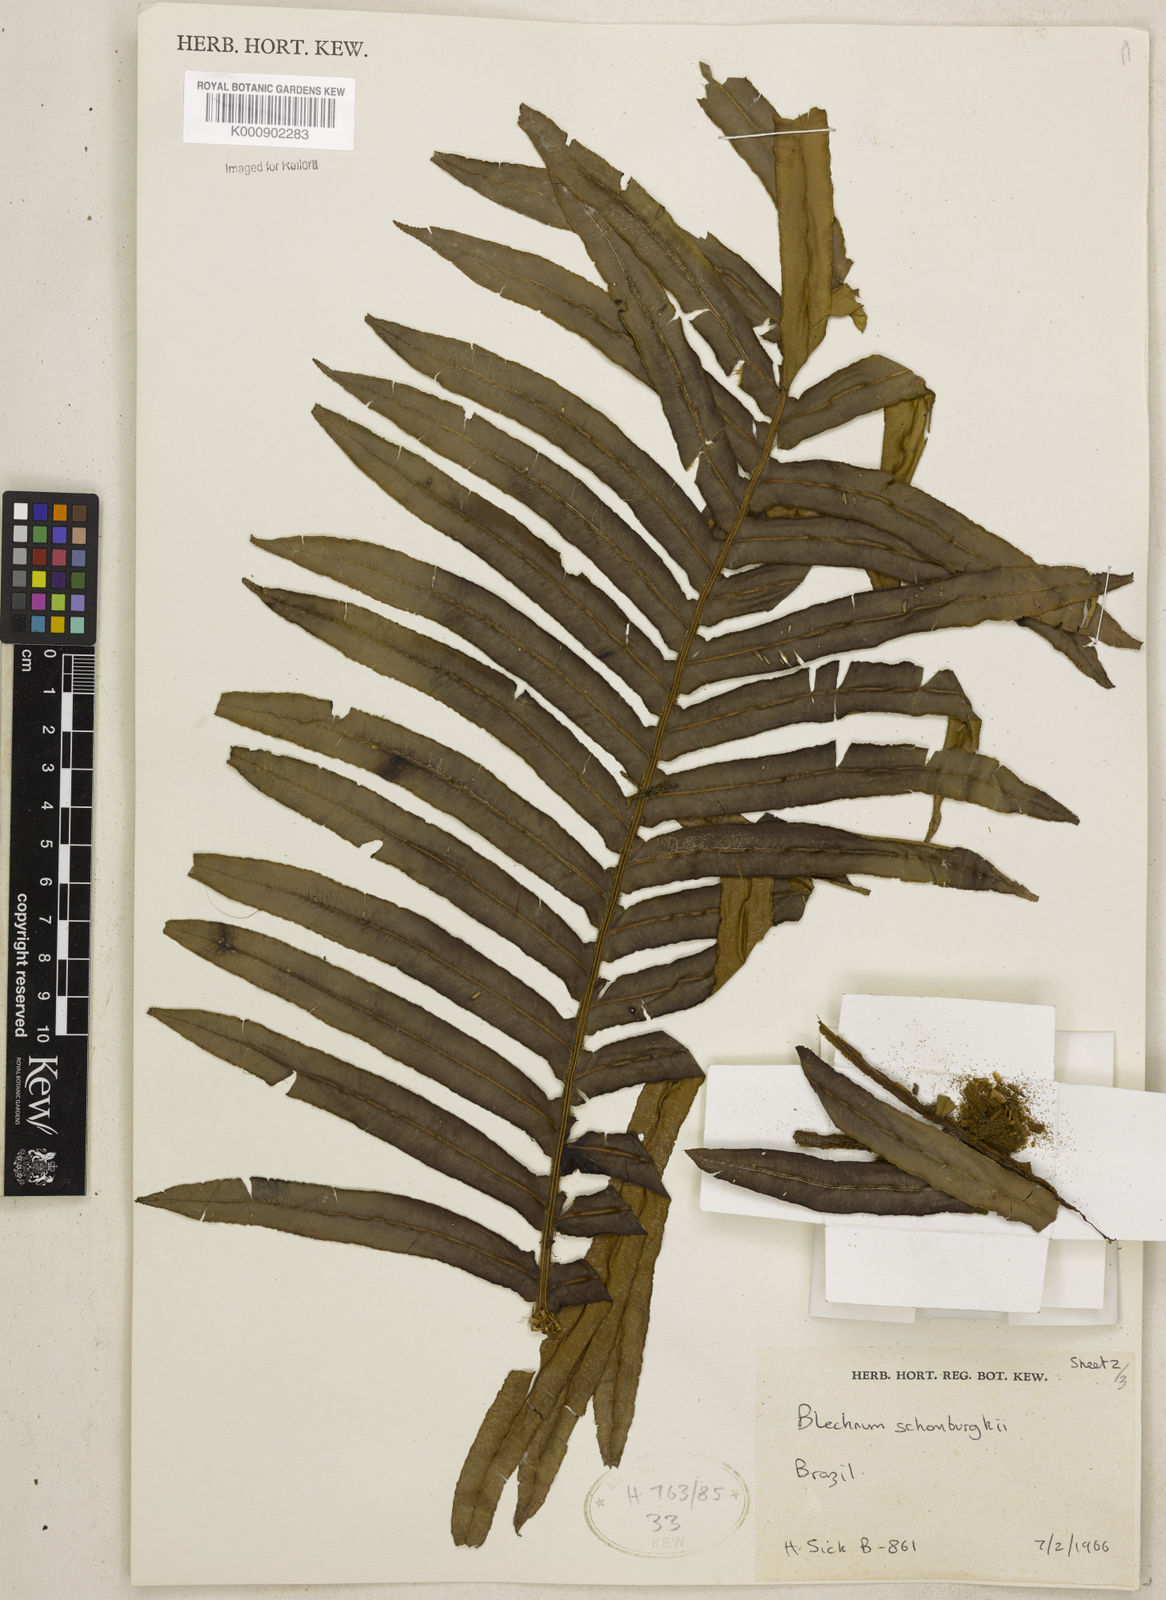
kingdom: Plantae
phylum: Tracheophyta
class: Polypodiopsida
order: Polypodiales
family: Blechnaceae
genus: Lomaria
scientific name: Lomaria spannagelii
